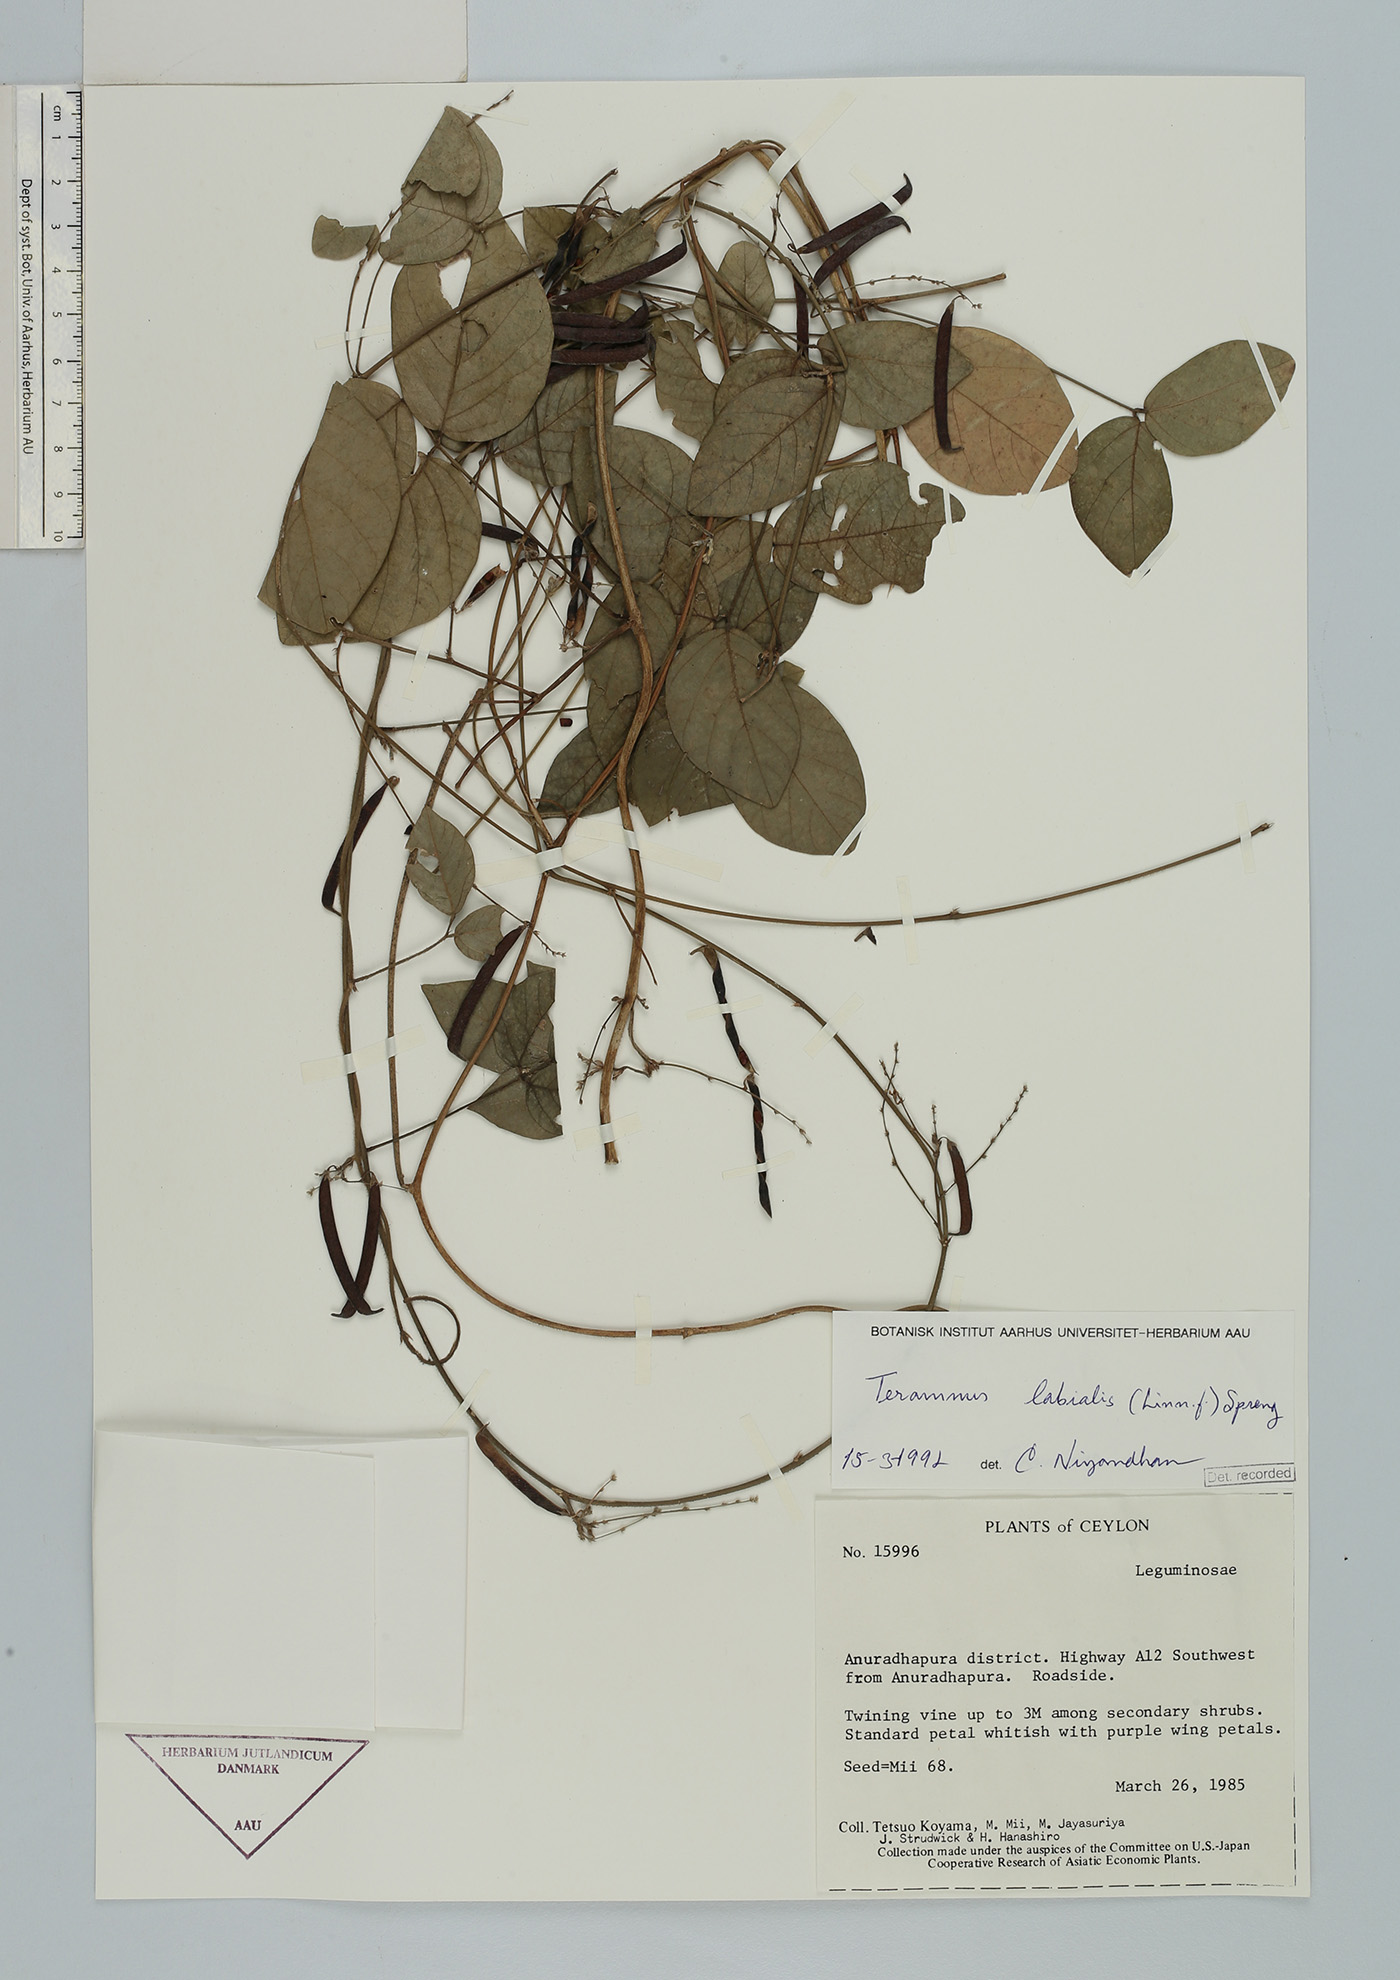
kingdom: Plantae
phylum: Tracheophyta
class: Magnoliopsida
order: Fabales
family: Fabaceae
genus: Teramnus
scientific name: Teramnus labialis
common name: Blue wiss
